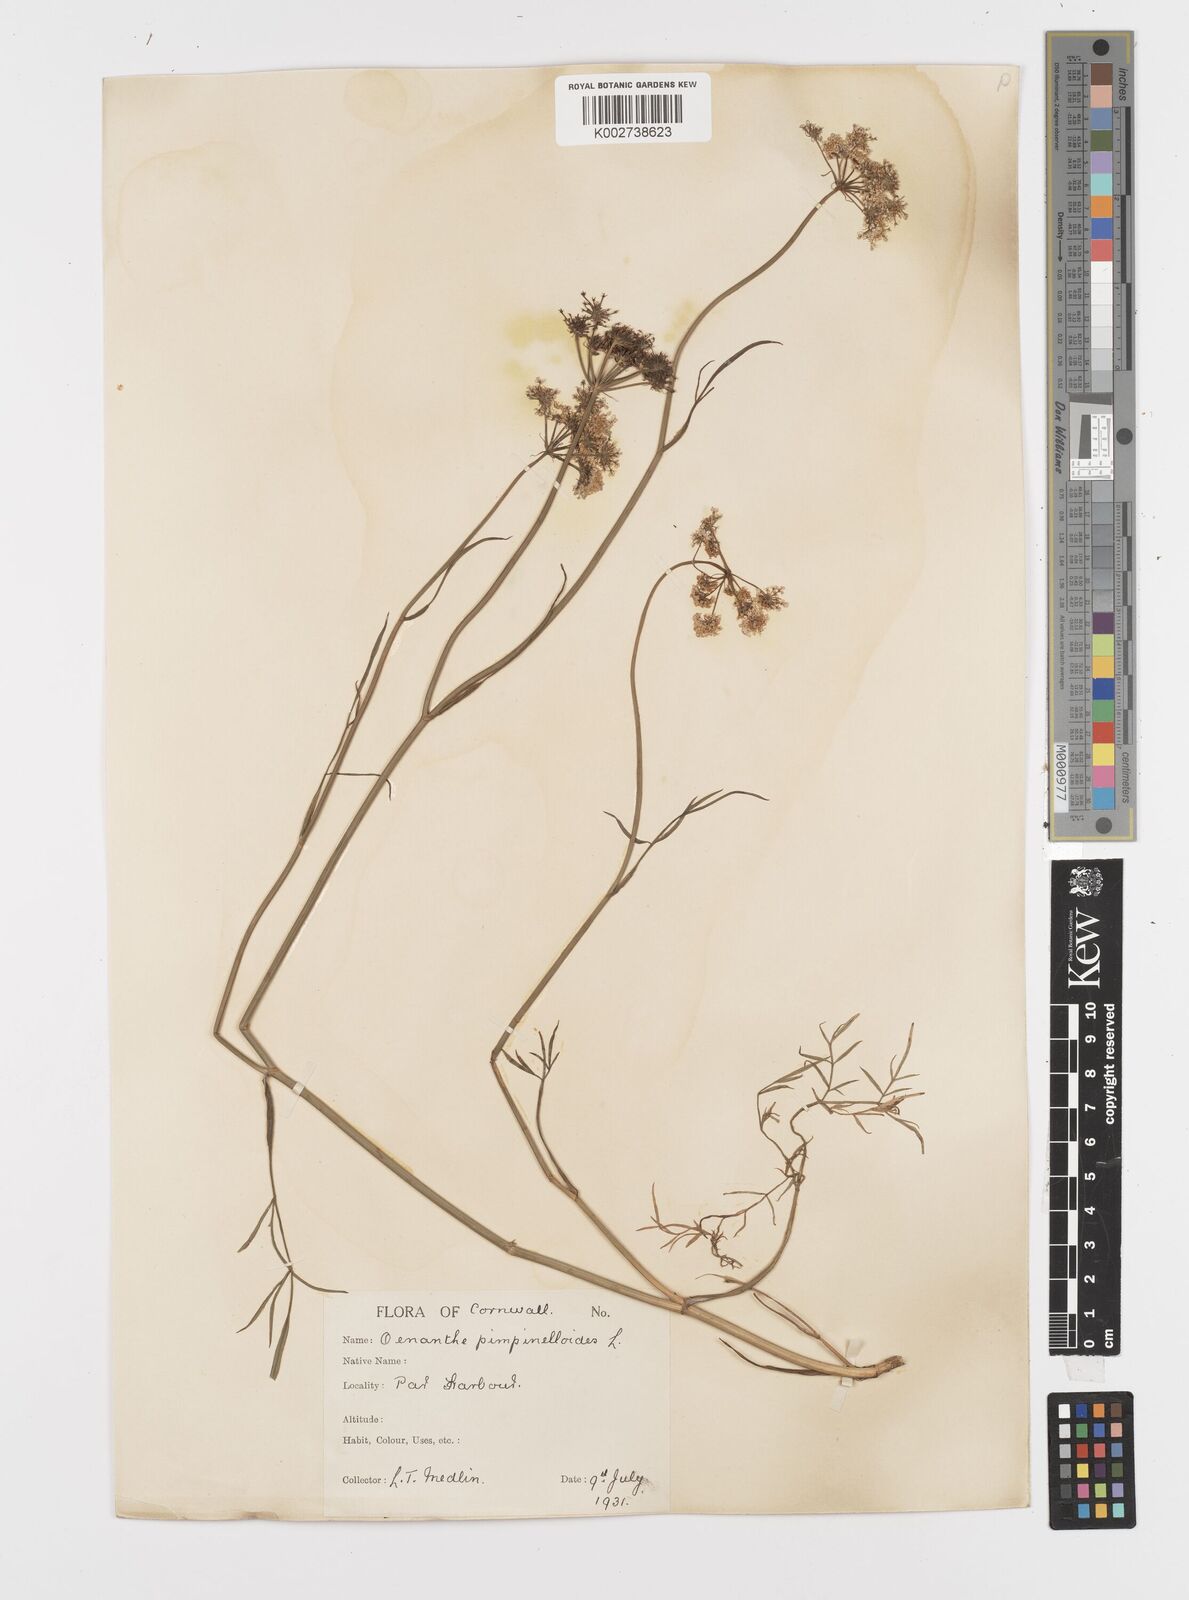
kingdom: Plantae
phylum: Tracheophyta
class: Magnoliopsida
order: Apiales
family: Apiaceae
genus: Oenanthe
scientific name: Oenanthe pimpinelloides
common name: Corky-fruited water-dropwort
